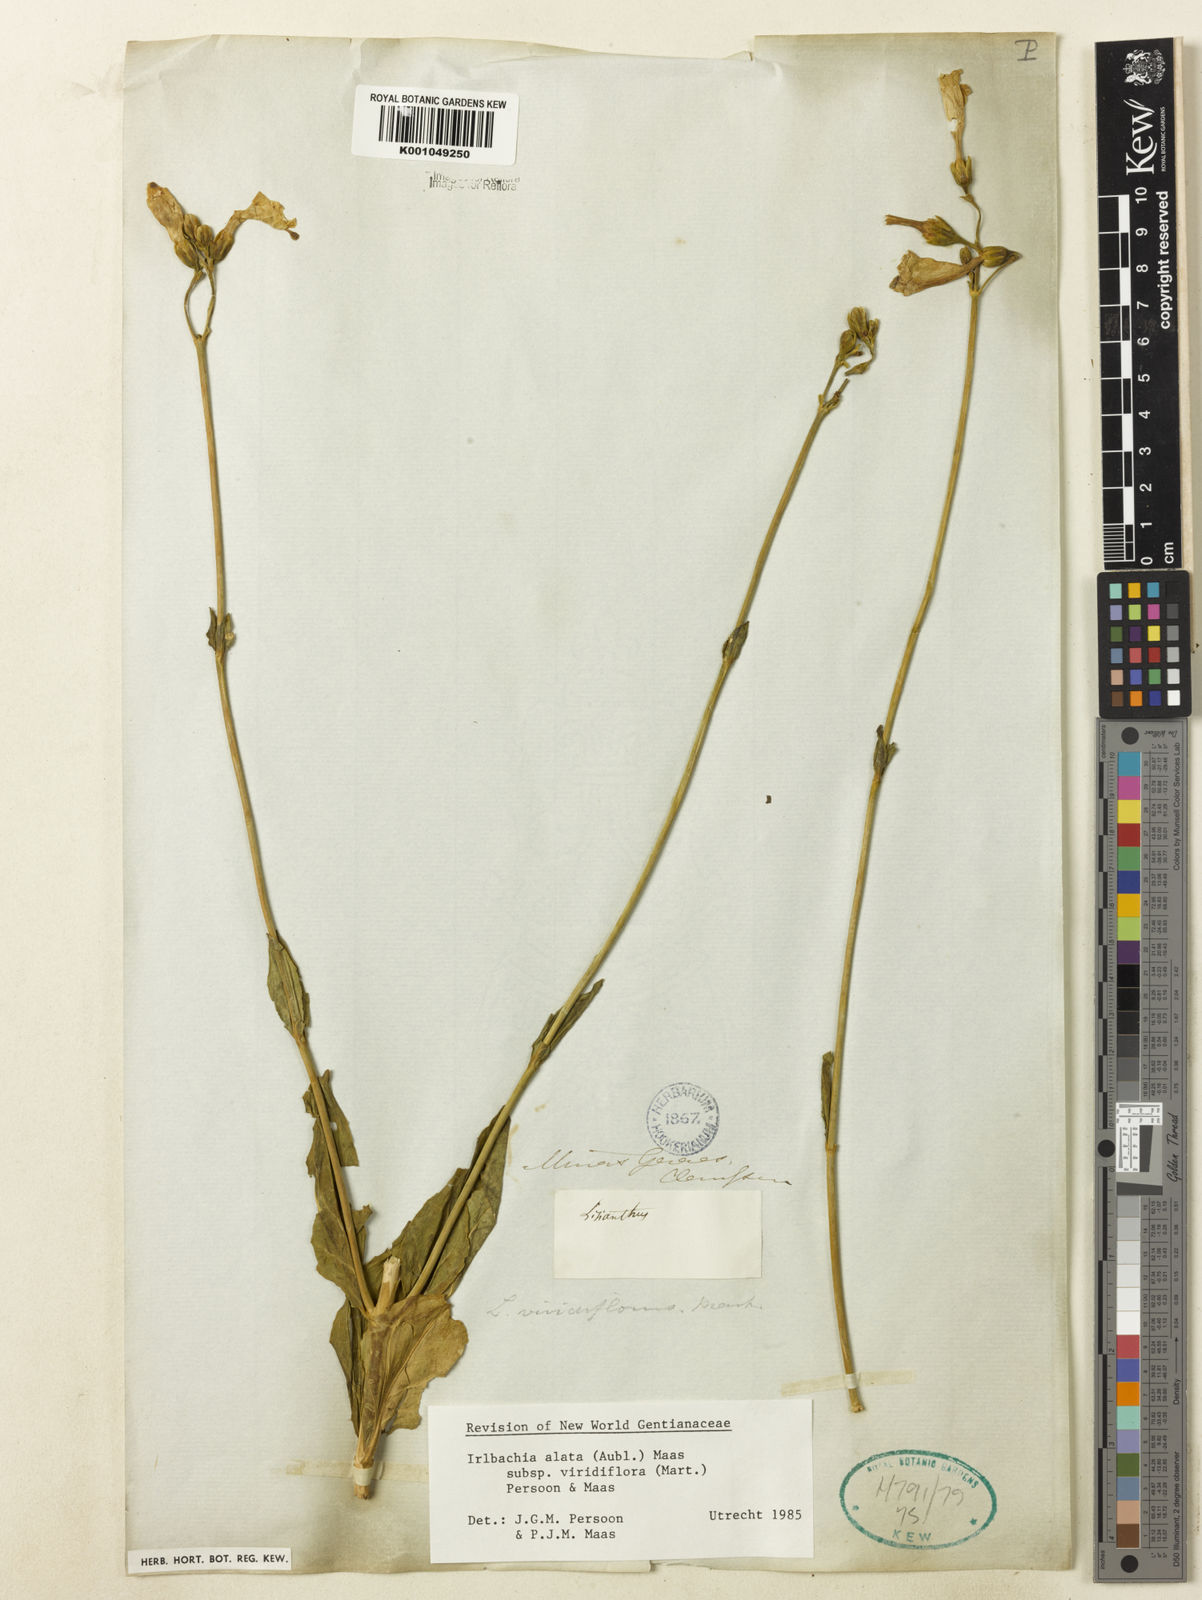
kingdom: Plantae
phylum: Tracheophyta
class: Magnoliopsida
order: Gentianales
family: Gentianaceae
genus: Chelonanthus
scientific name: Chelonanthus viridiflorus
